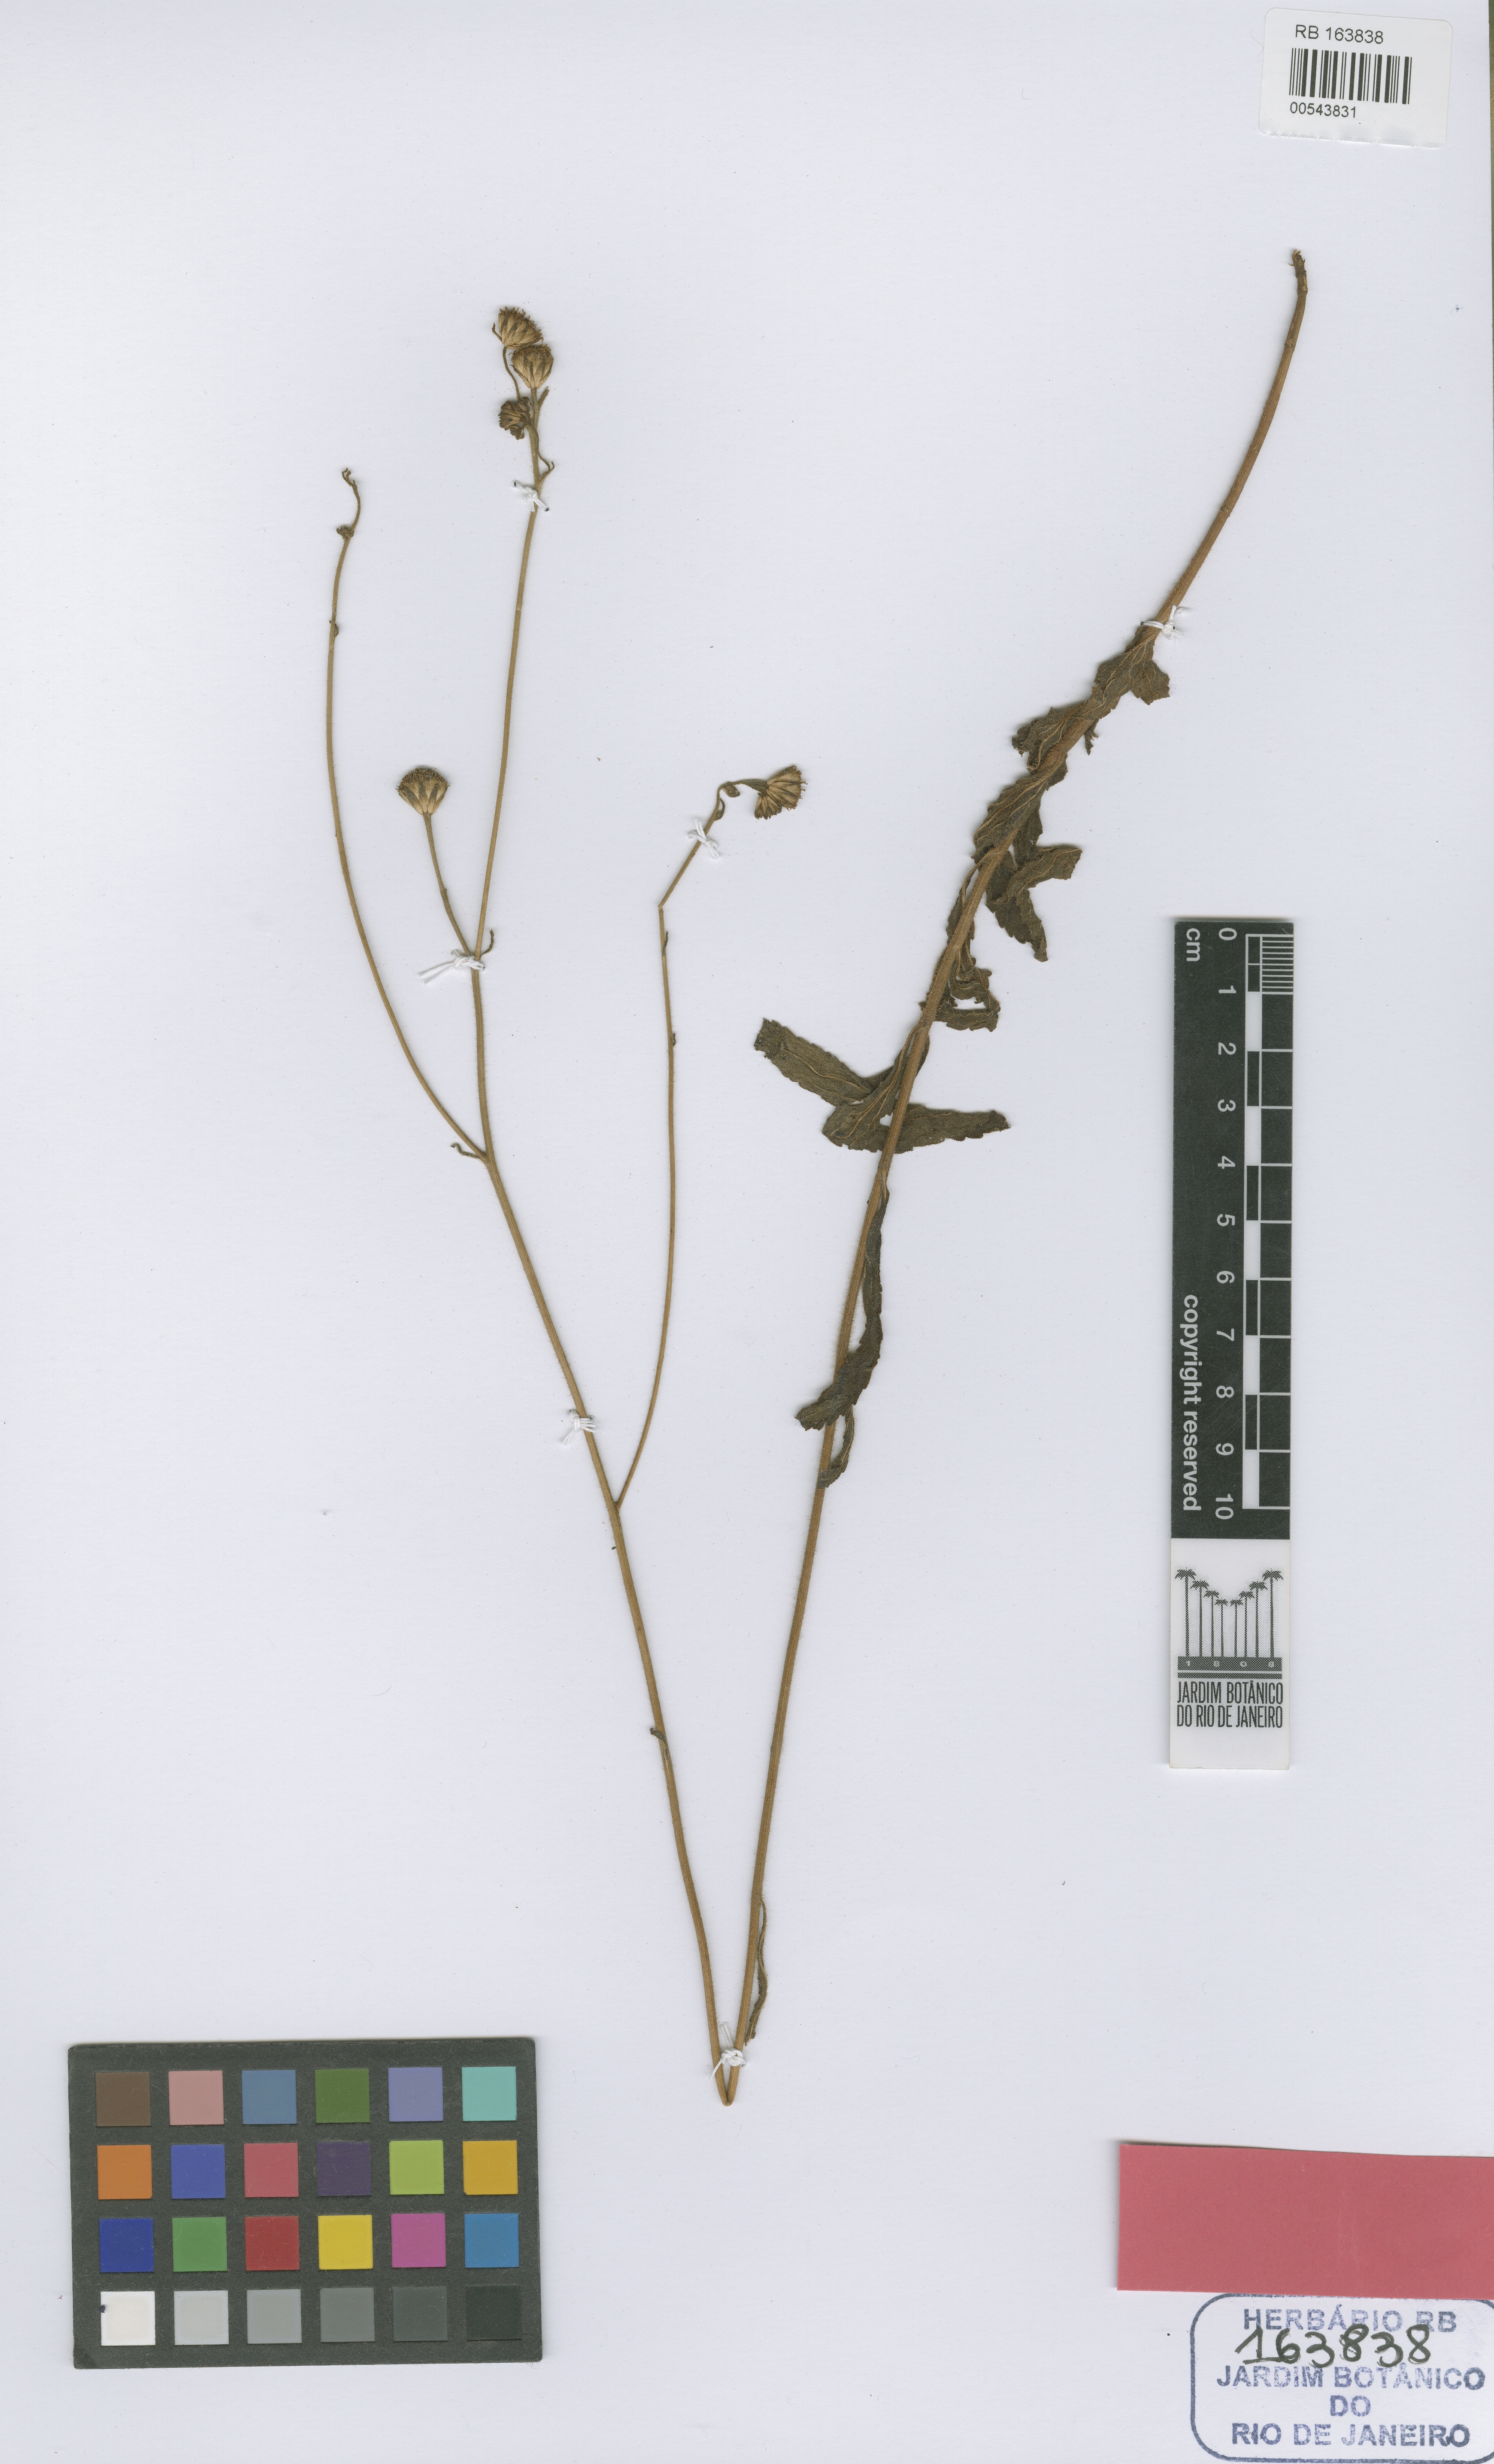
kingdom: Plantae
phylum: Tracheophyta
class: Magnoliopsida
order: Asterales
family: Asteraceae
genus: Campuloclinium
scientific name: Campuloclinium irwinii
